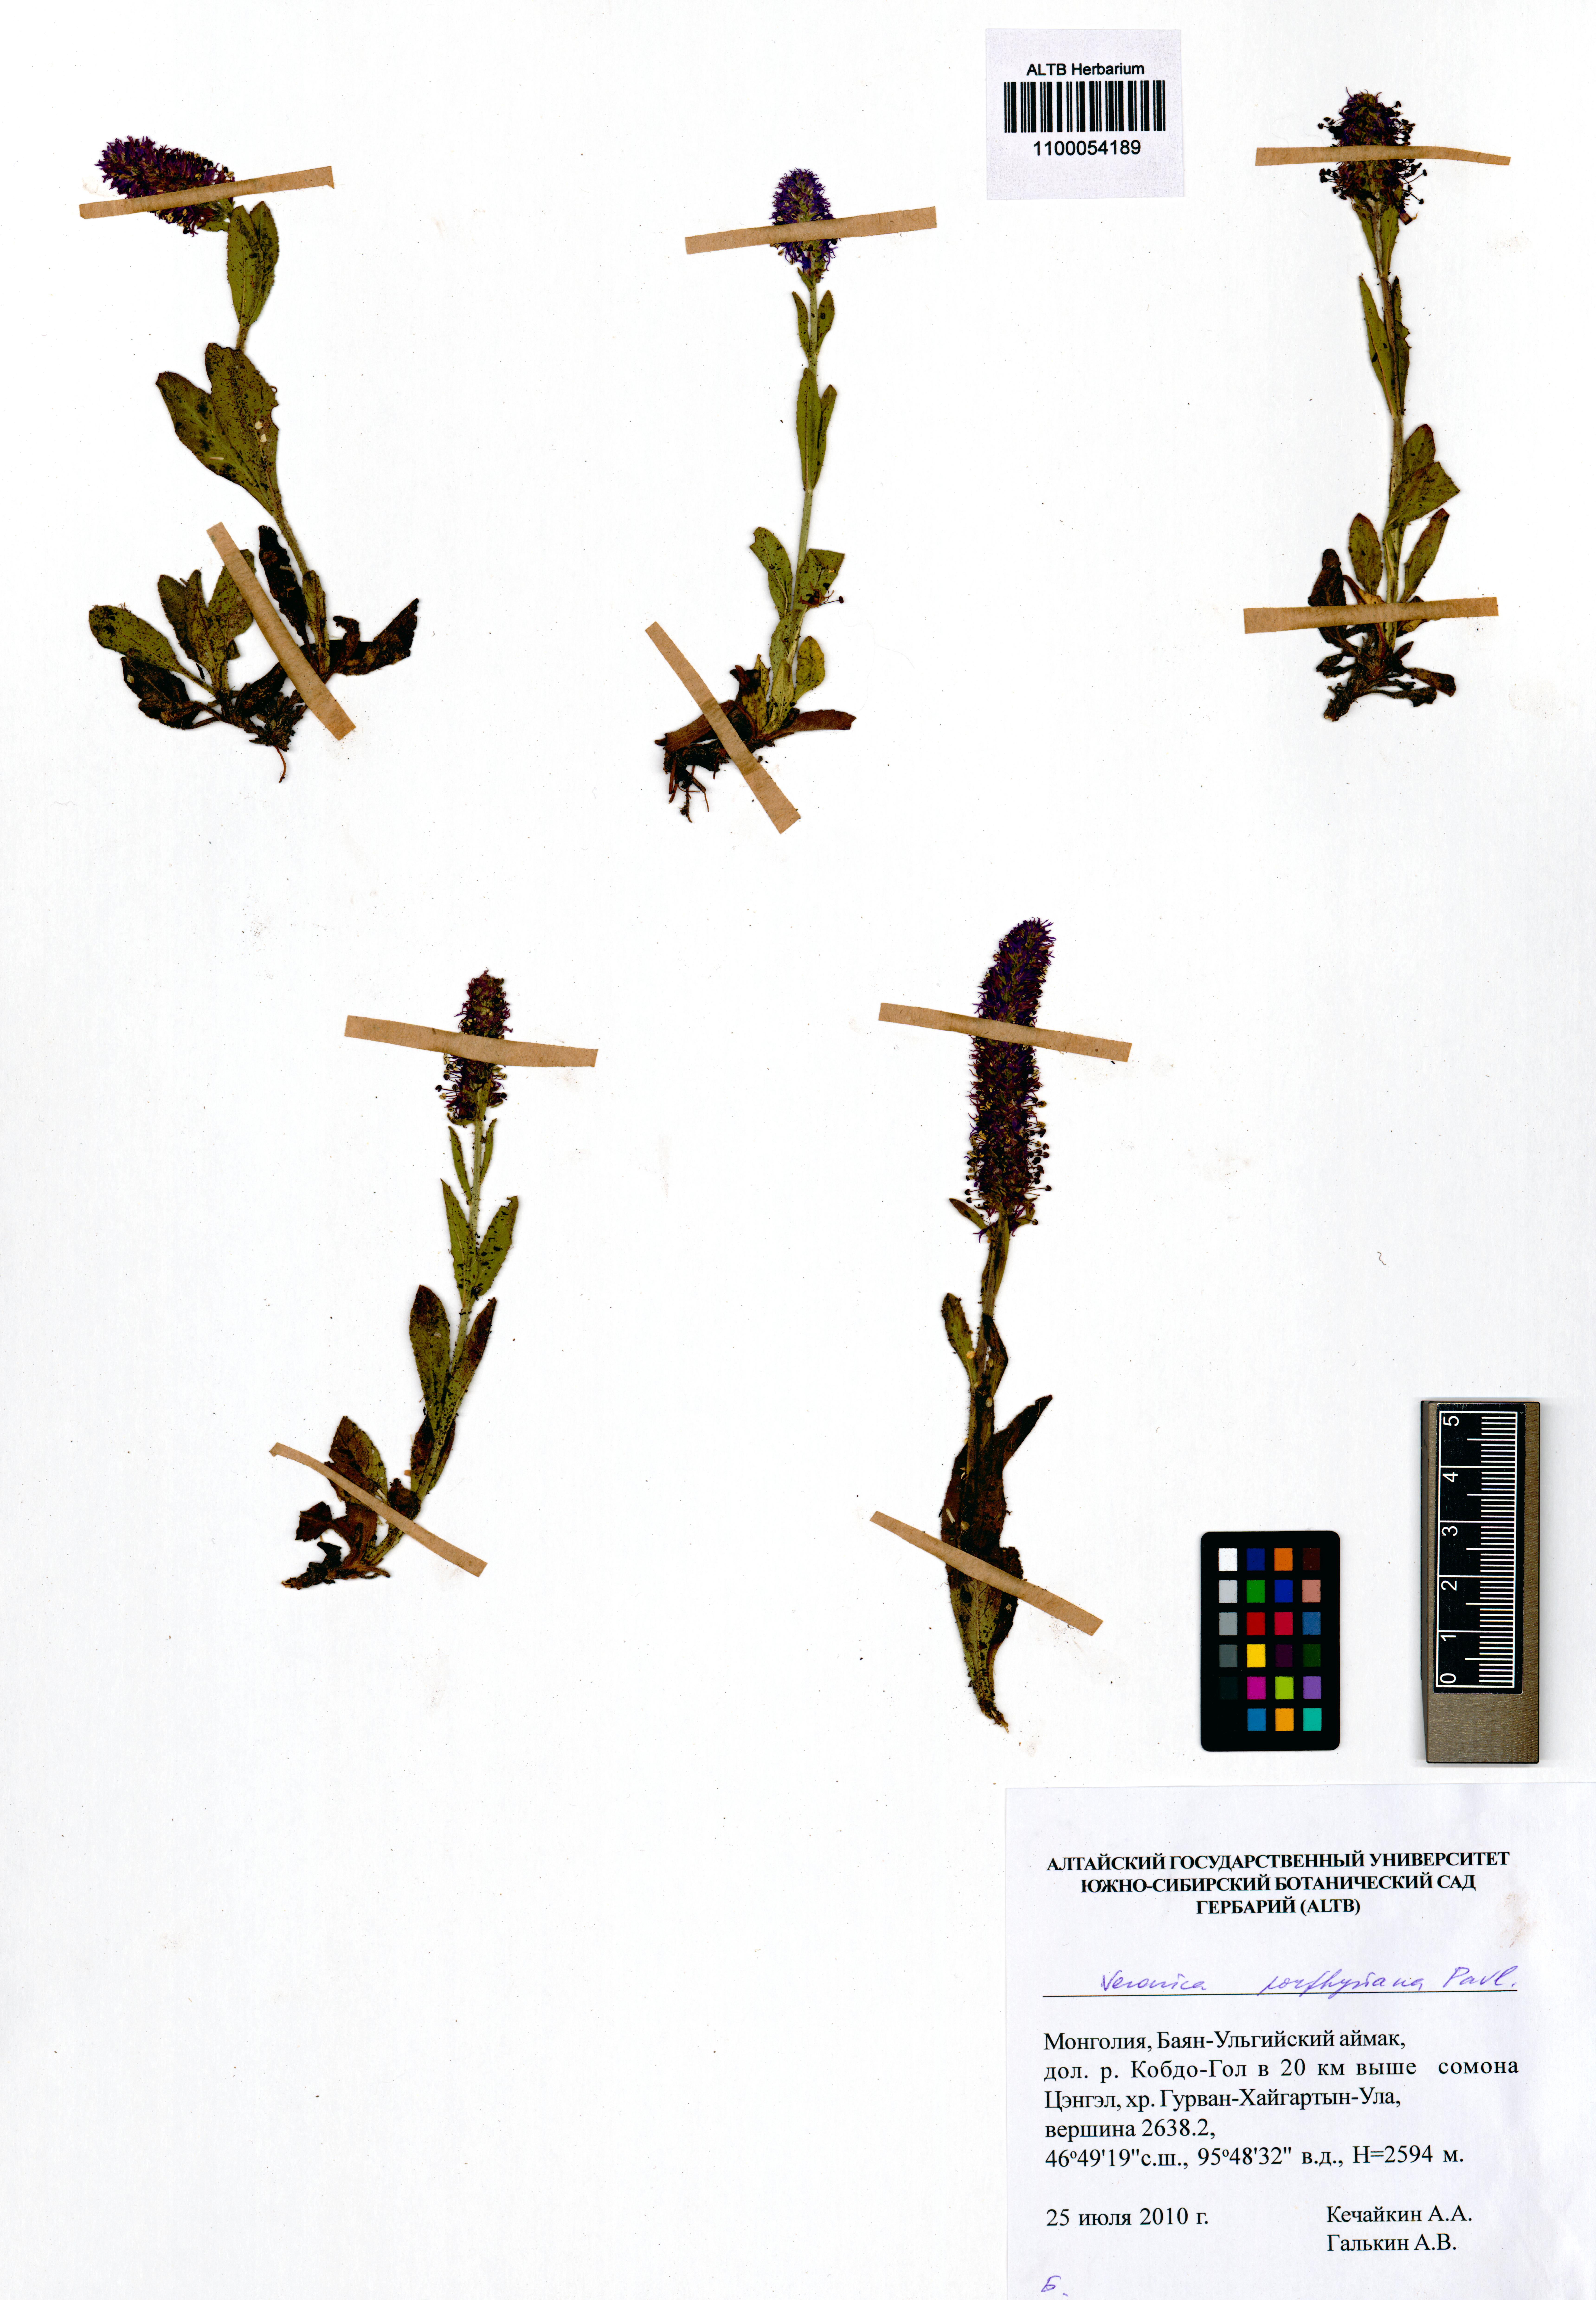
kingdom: Plantae
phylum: Tracheophyta
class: Magnoliopsida
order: Lamiales
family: Plantaginaceae
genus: Veronica
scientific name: Veronica porphyriana
